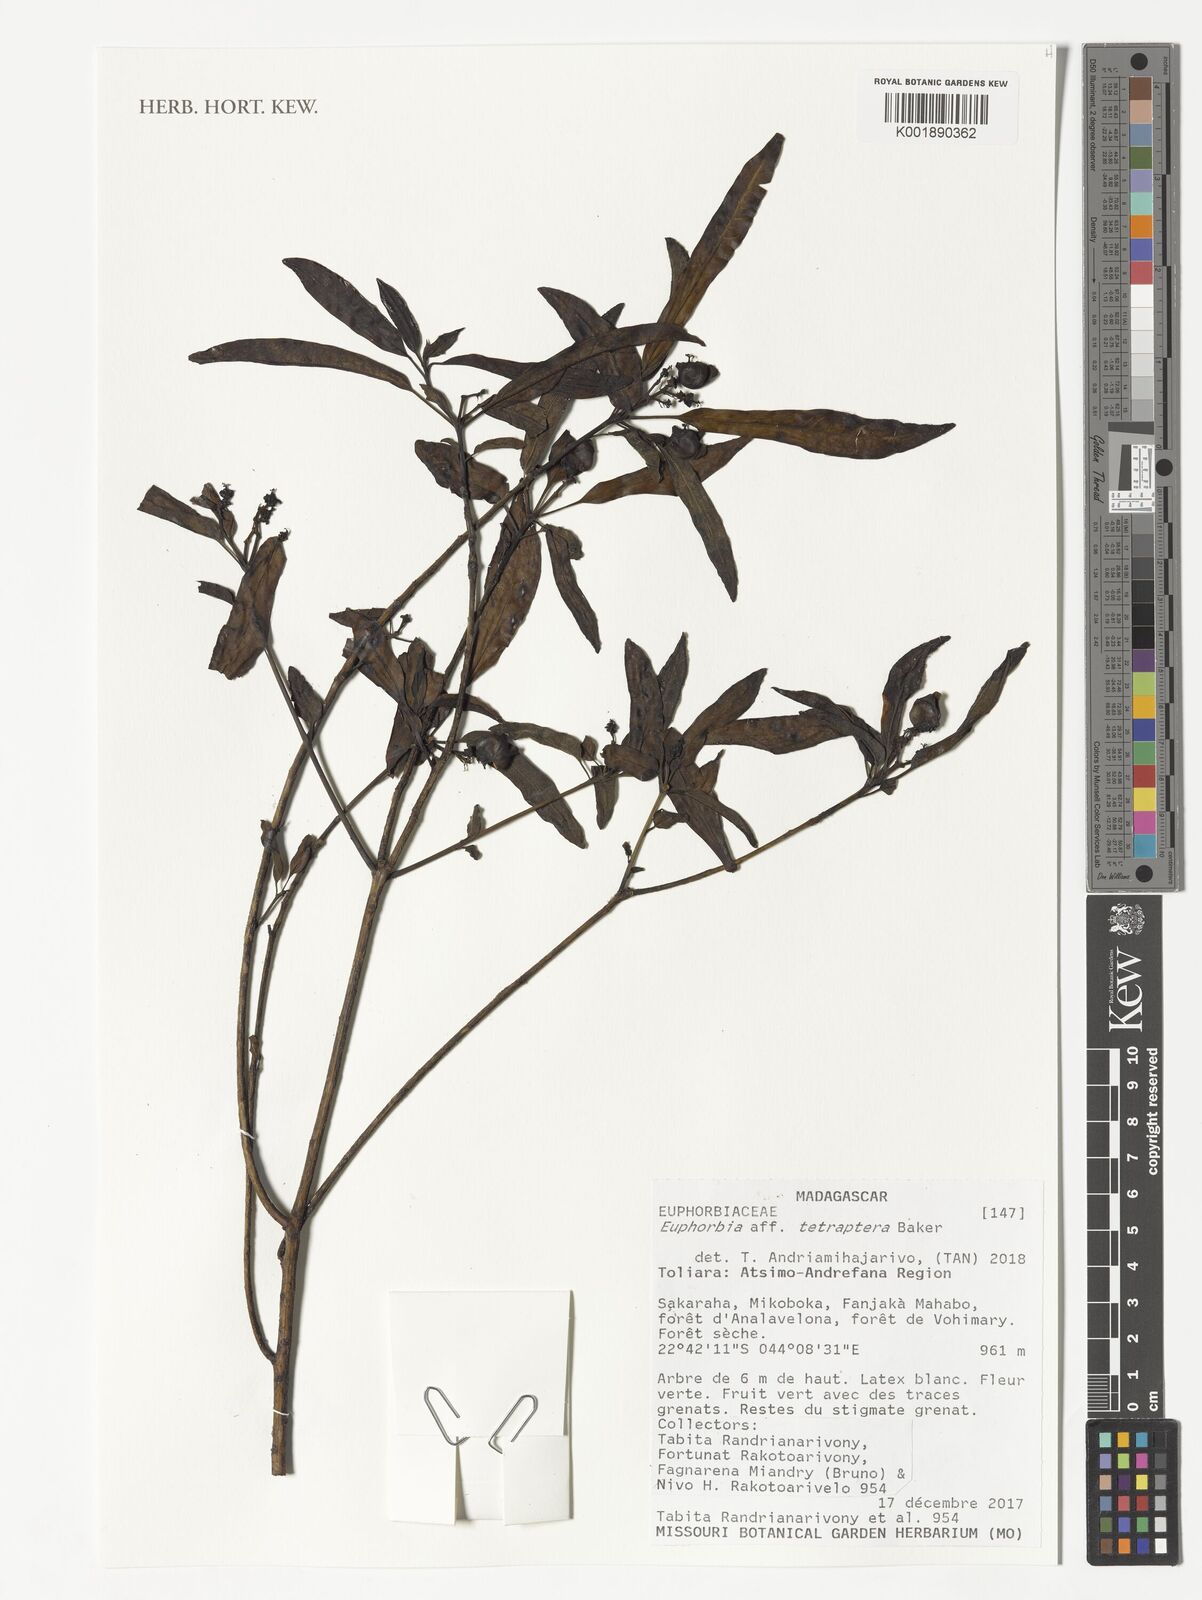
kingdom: Plantae
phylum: Tracheophyta
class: Magnoliopsida
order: Malpighiales
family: Euphorbiaceae
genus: Euphorbia
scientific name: Euphorbia tetraptera
